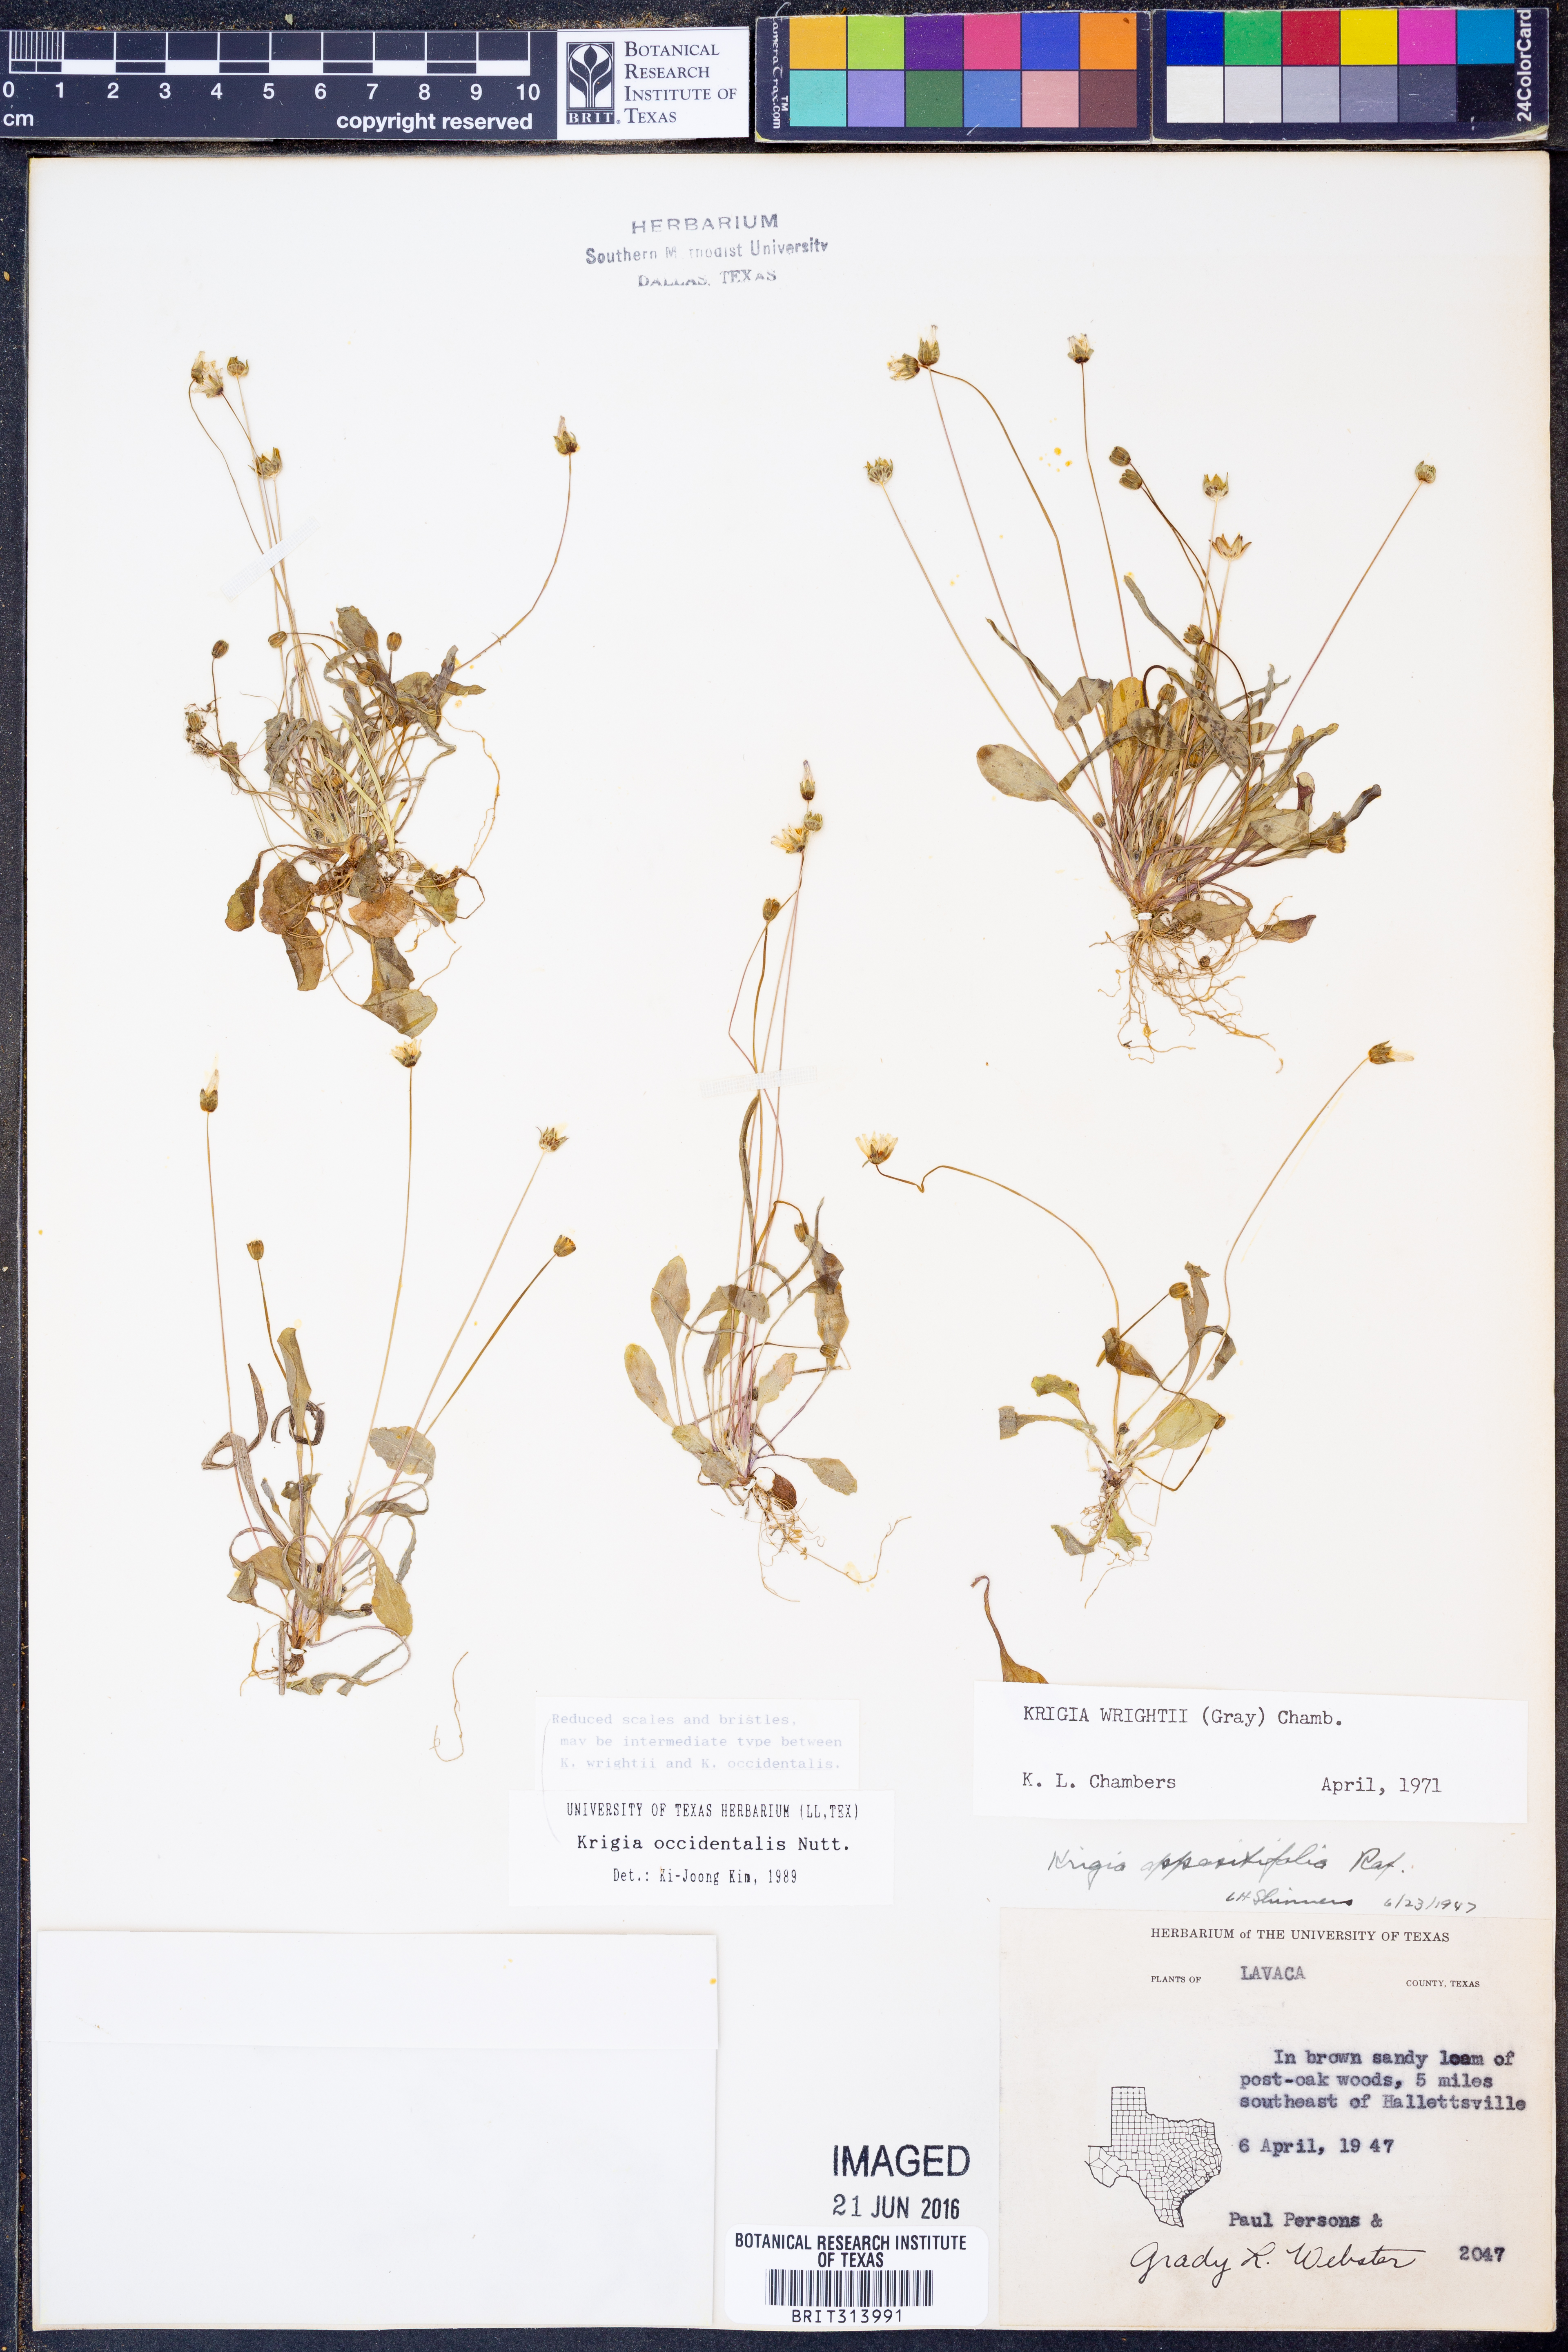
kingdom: Plantae
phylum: Tracheophyta
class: Magnoliopsida
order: Asterales
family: Asteraceae
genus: Krigia
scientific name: Krigia occidentalis
